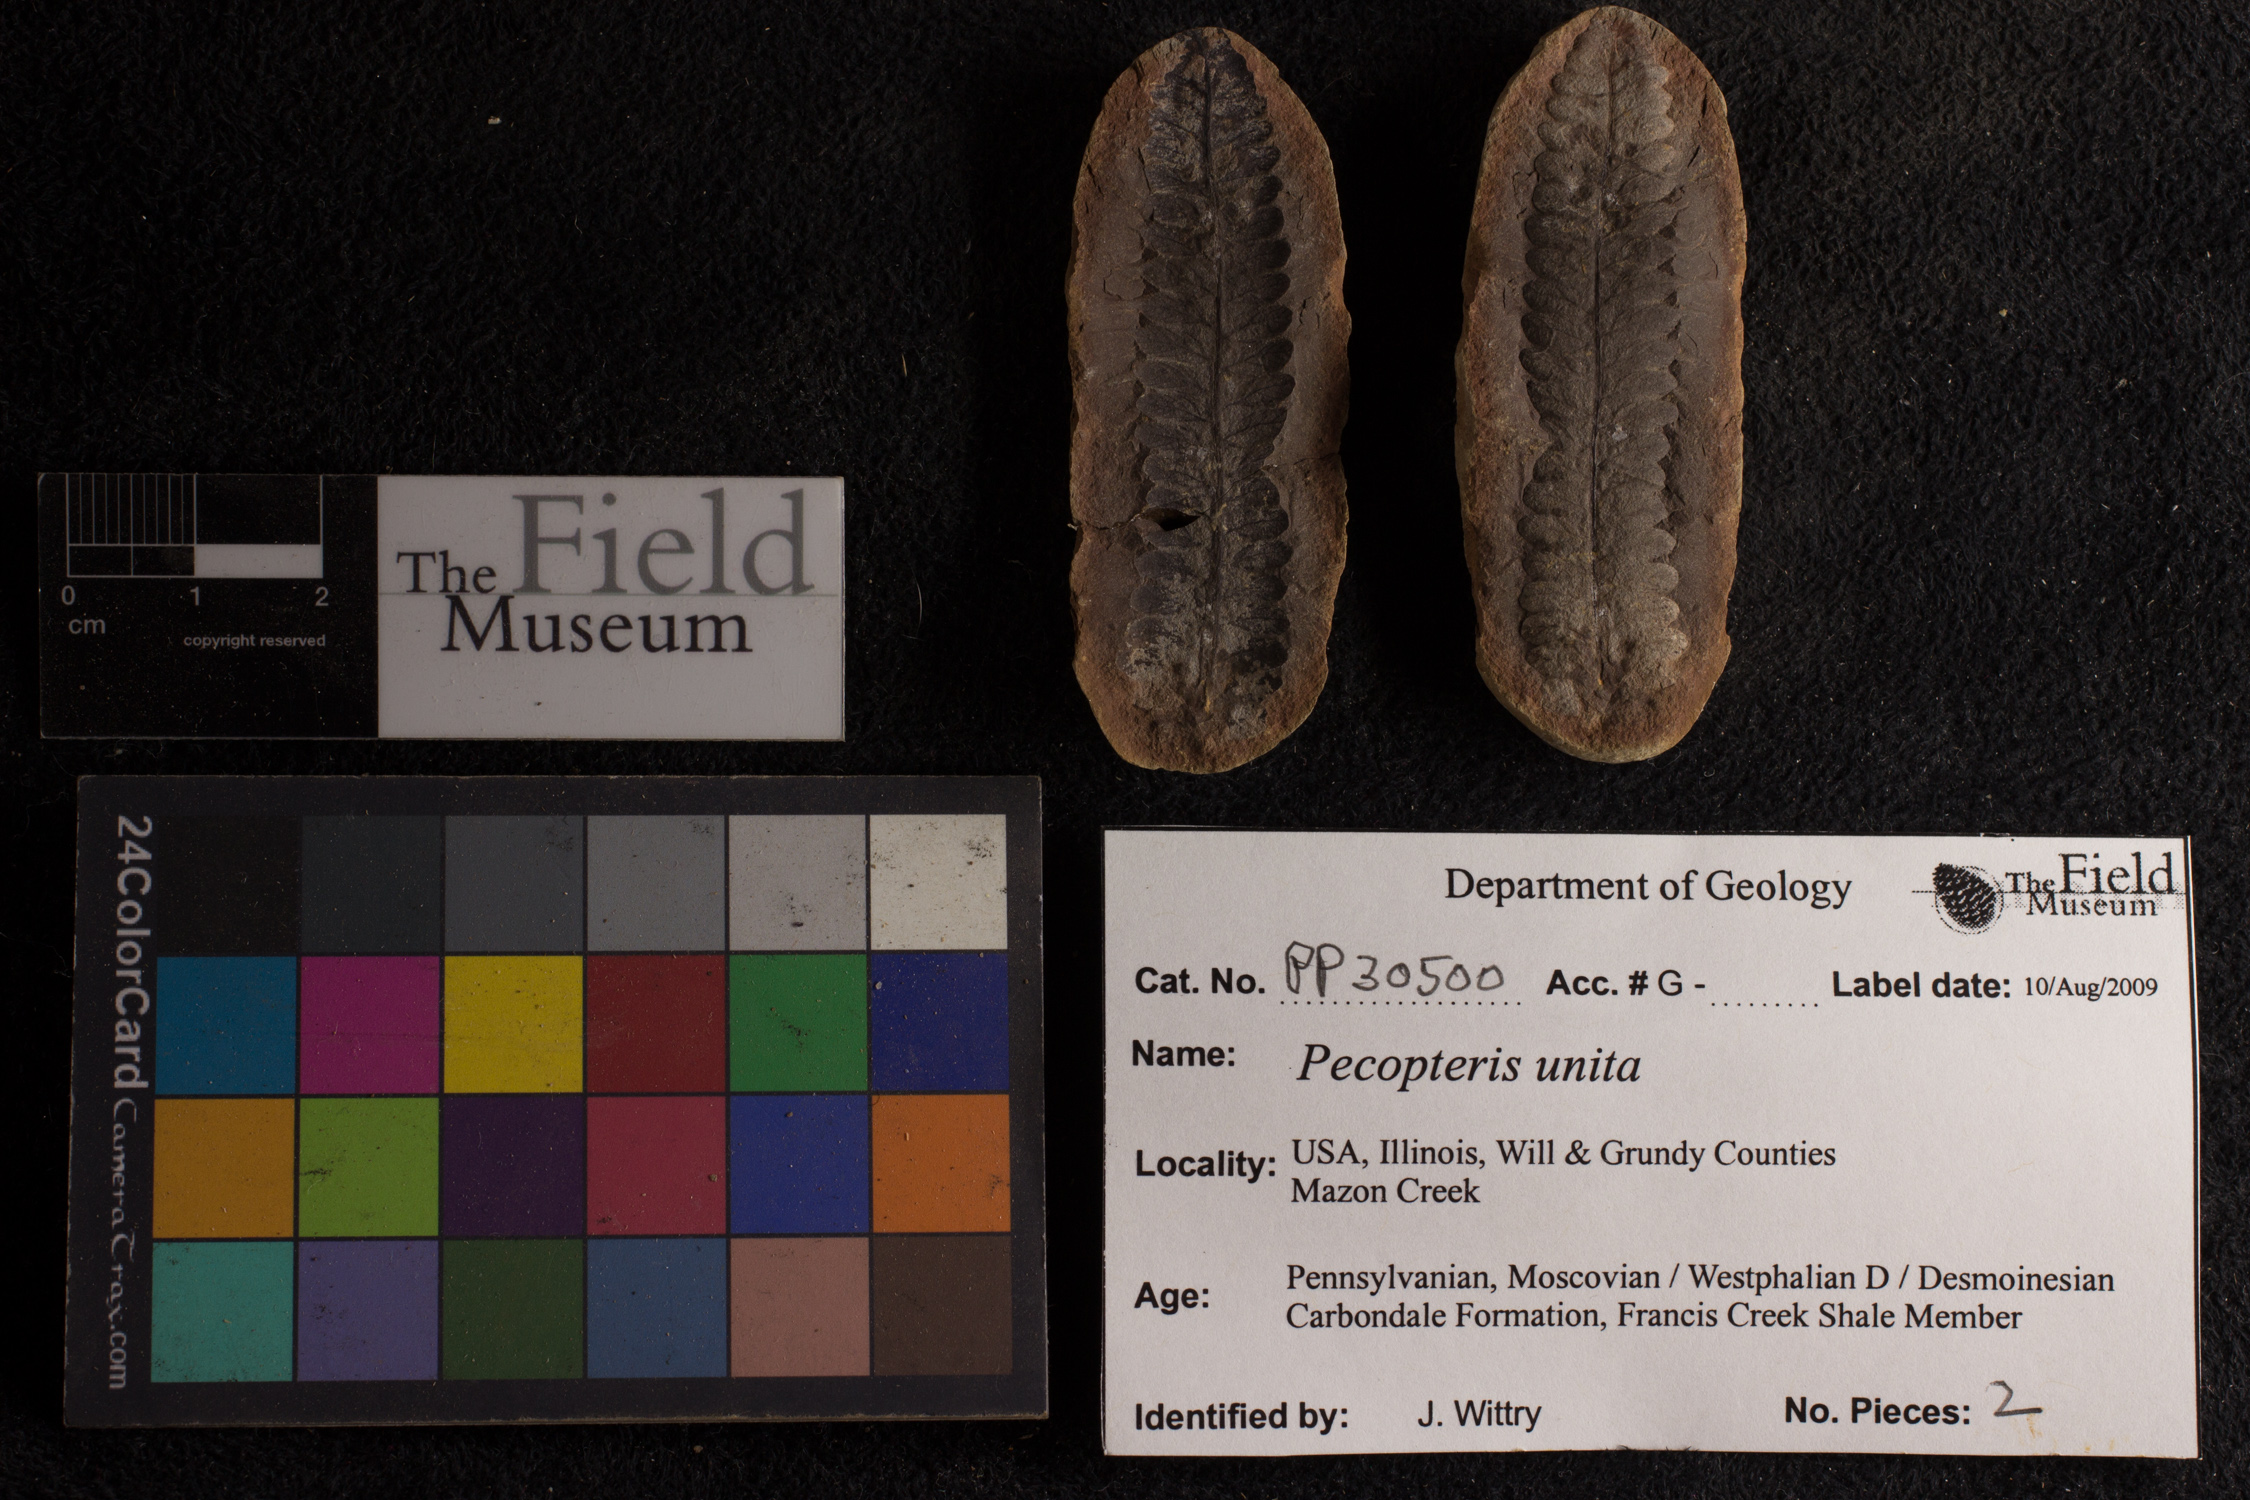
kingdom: Plantae
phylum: Tracheophyta
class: Polypodiopsida
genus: Diplazites
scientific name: Diplazites
